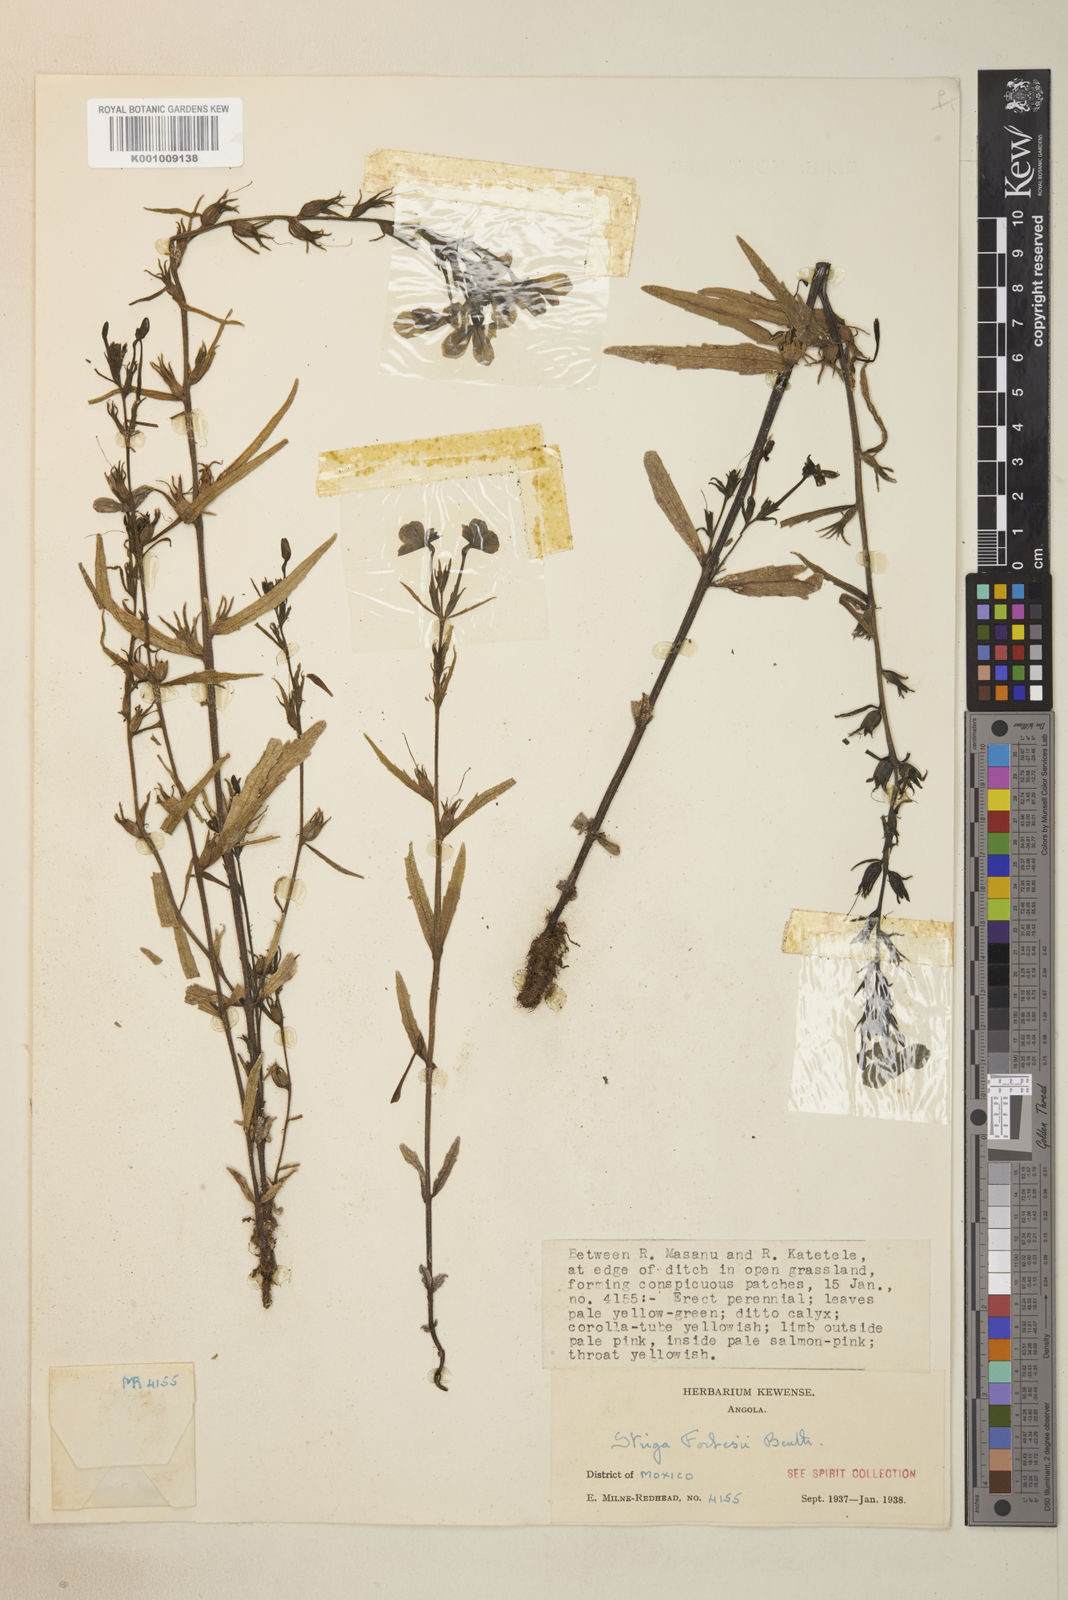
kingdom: Plantae
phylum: Tracheophyta
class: Magnoliopsida
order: Lamiales
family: Orobanchaceae
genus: Striga
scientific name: Striga forbesii
